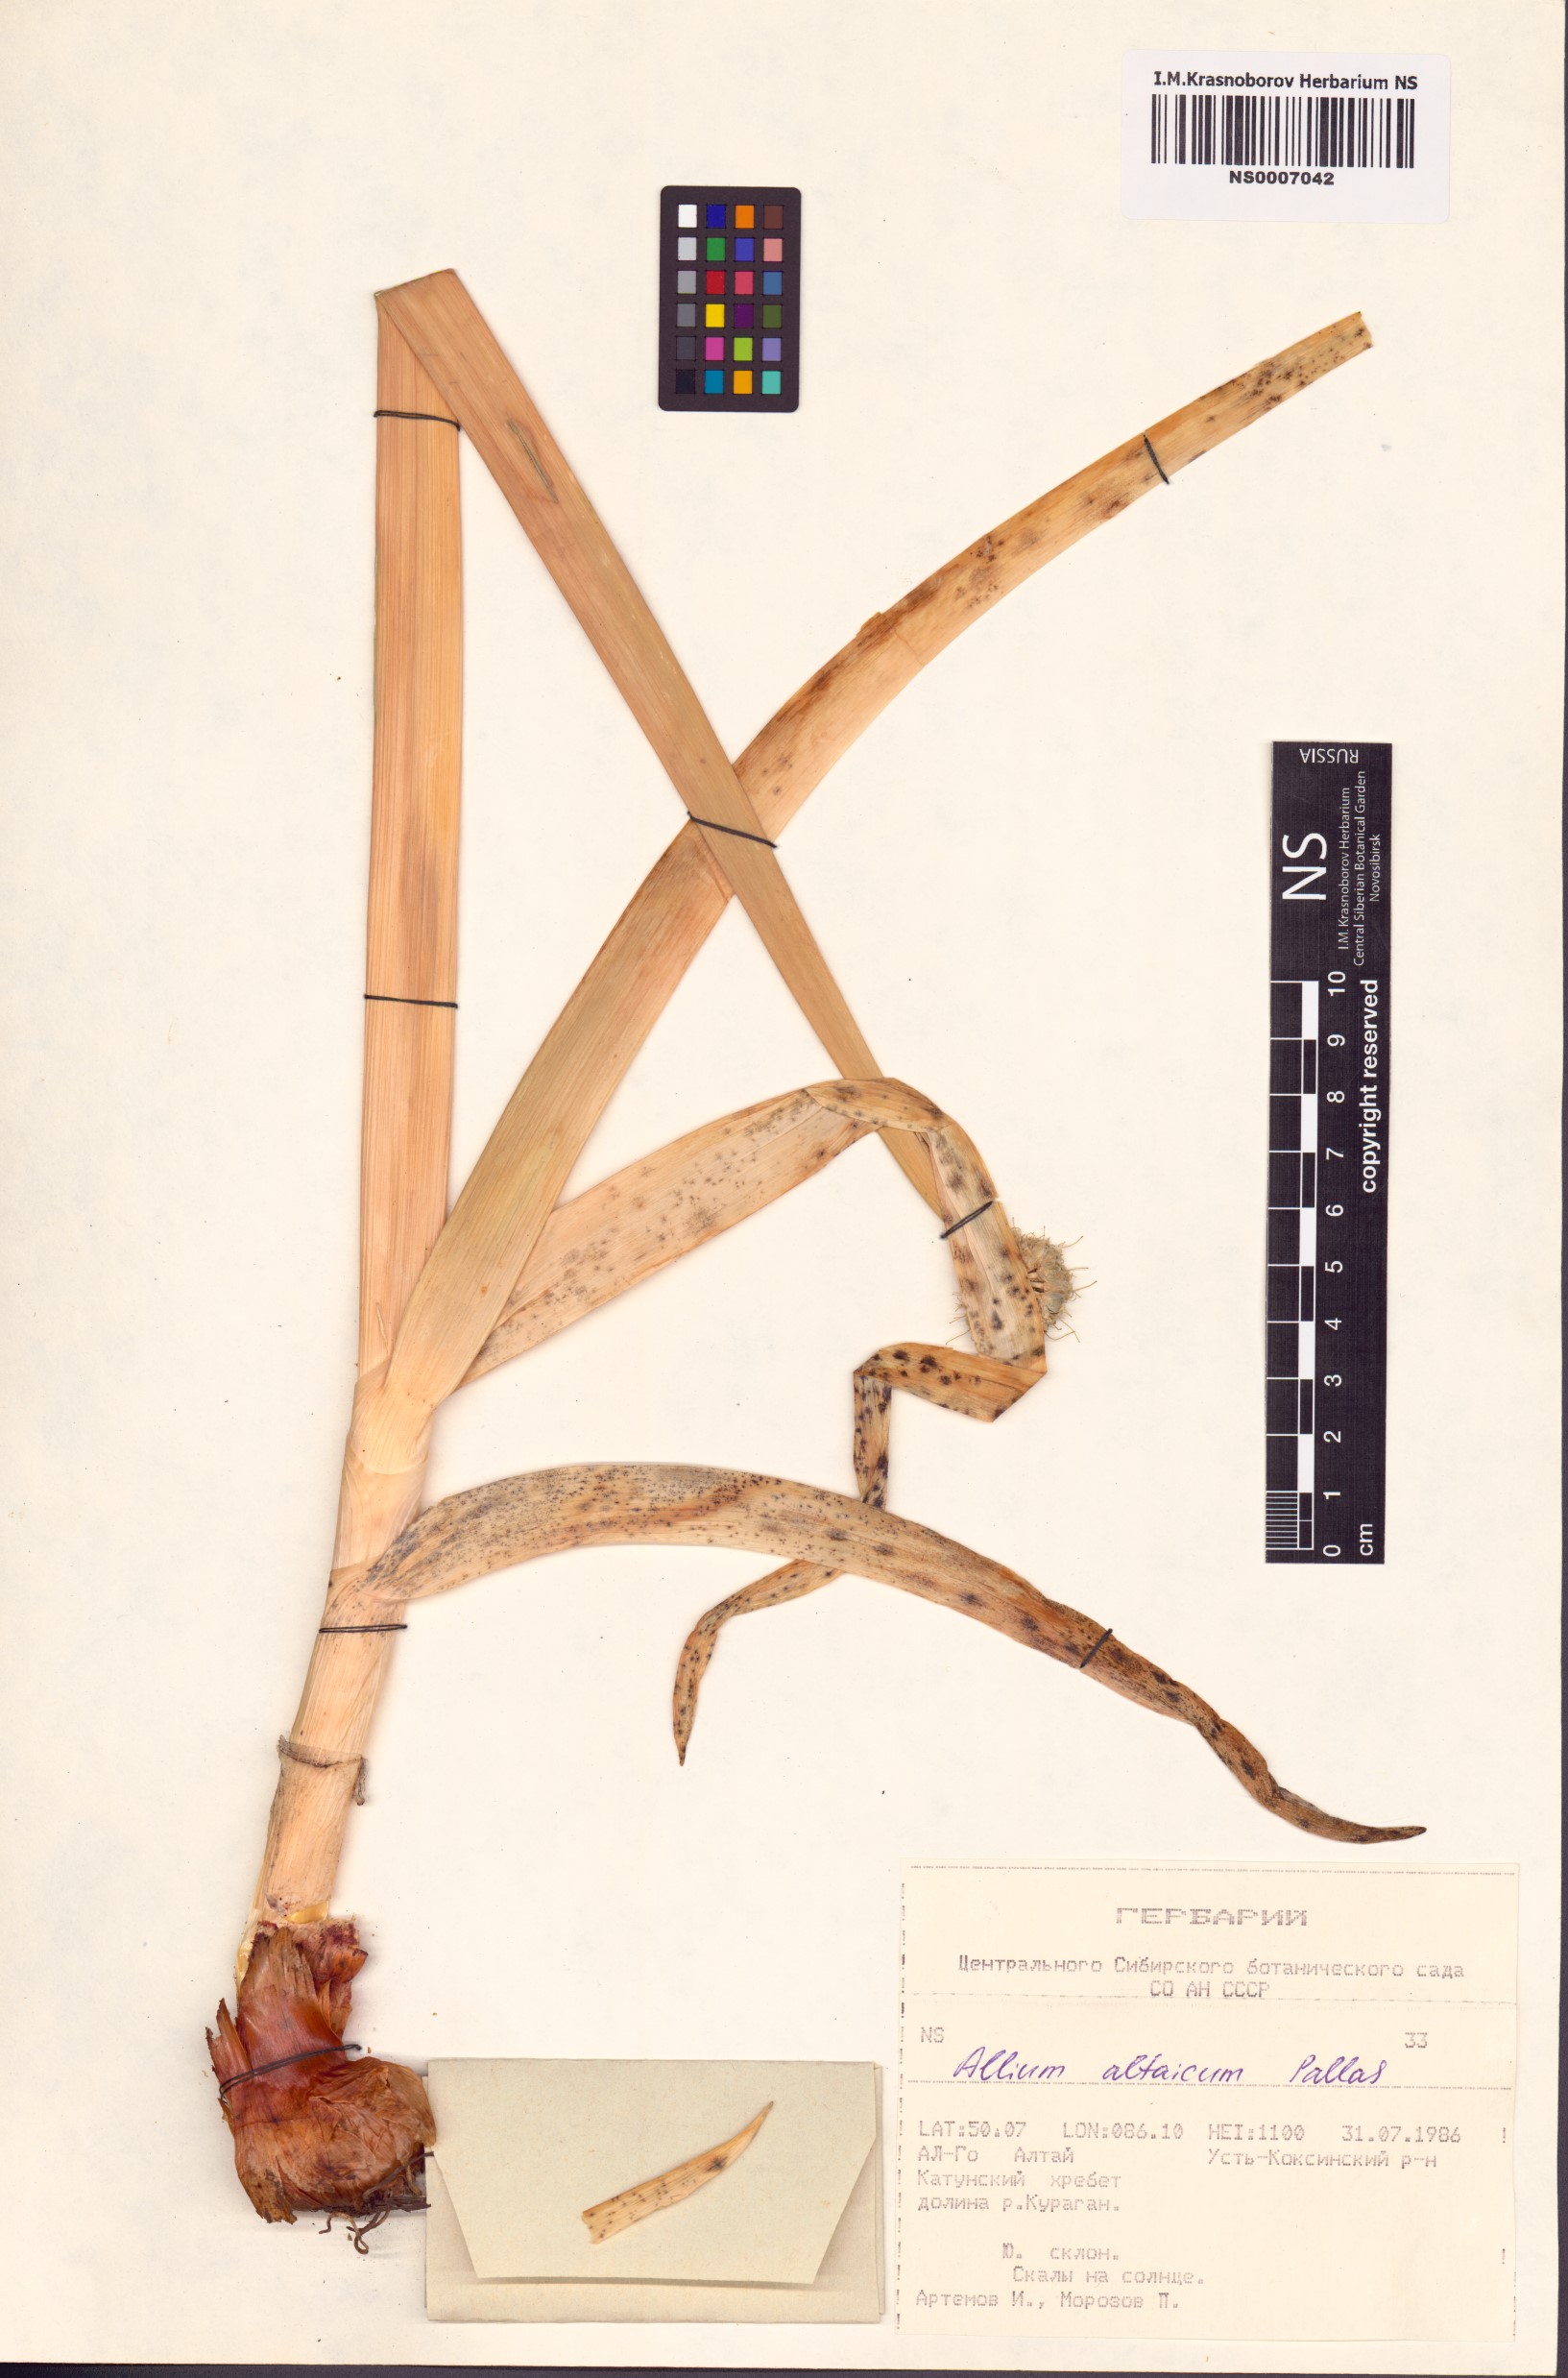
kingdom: Plantae
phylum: Tracheophyta
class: Liliopsida
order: Asparagales
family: Amaryllidaceae
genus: Allium
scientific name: Allium altaicum
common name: Altai onion
